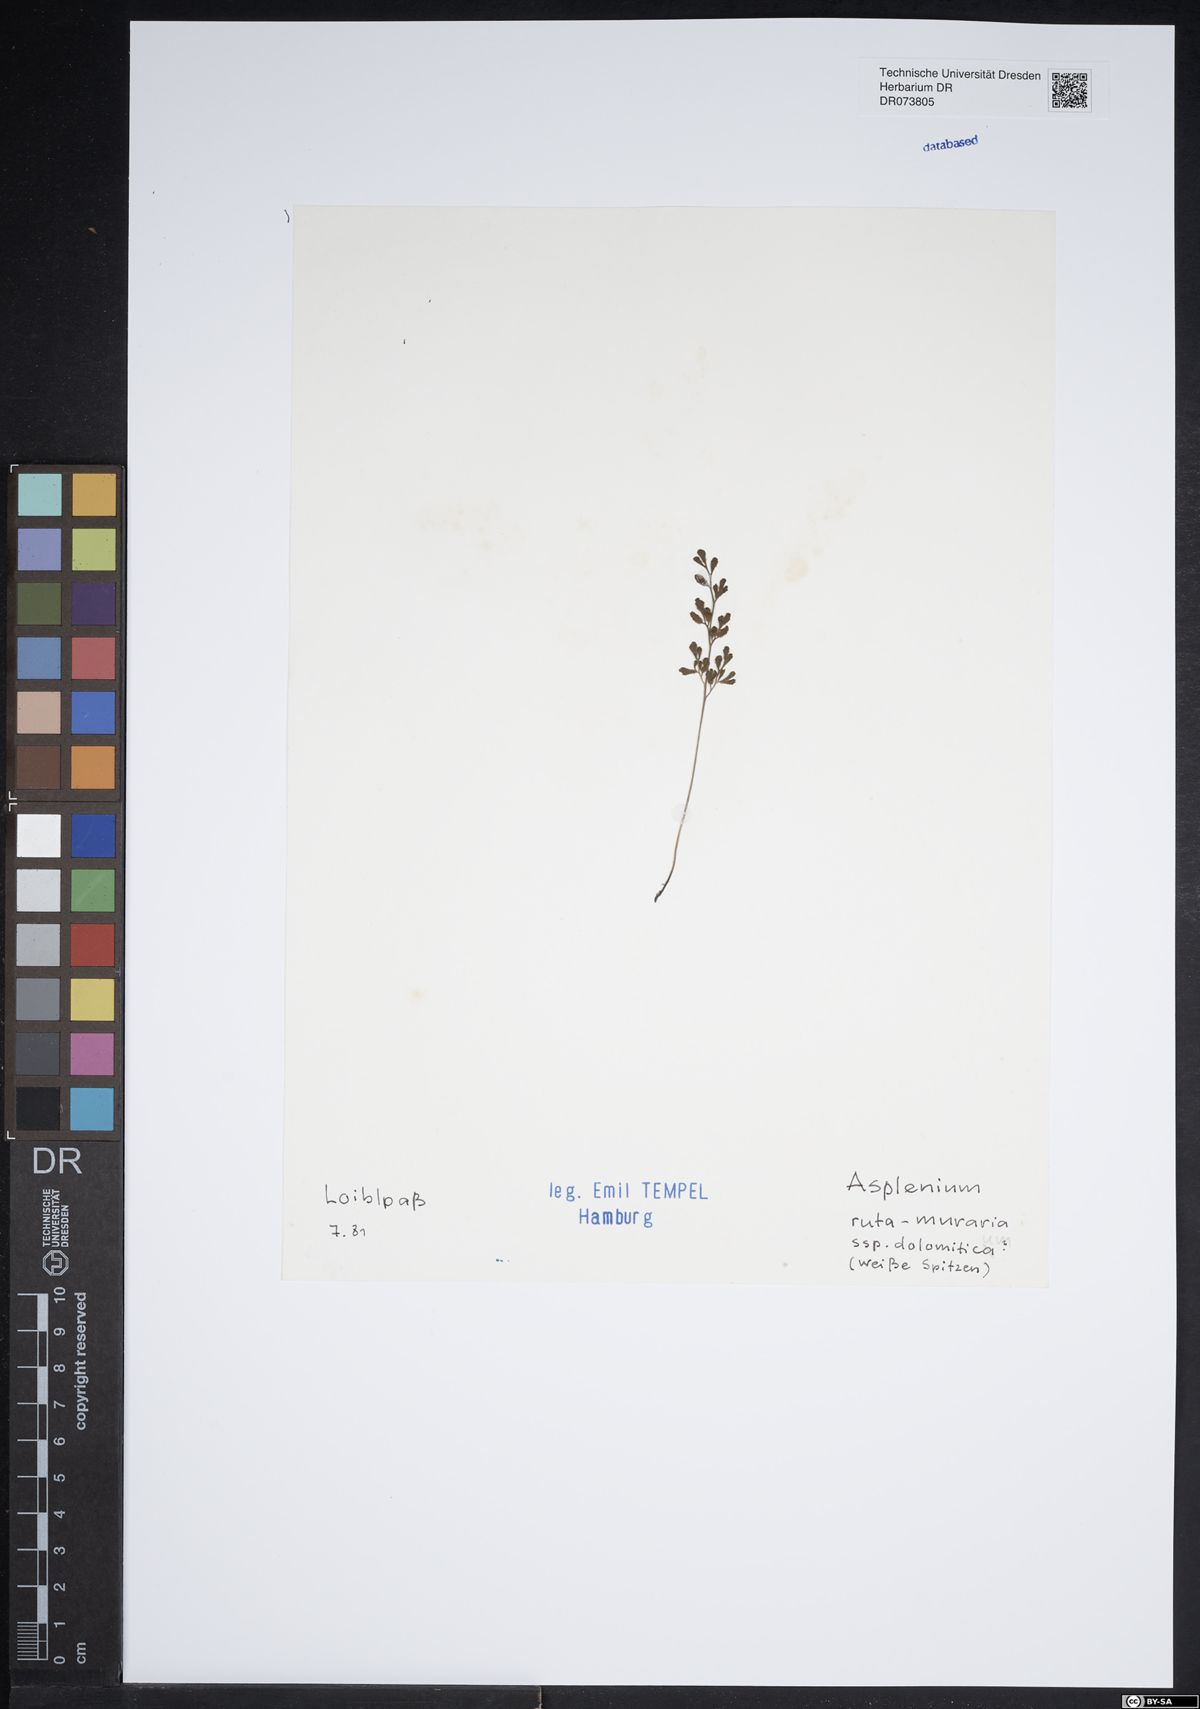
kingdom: Plantae
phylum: Tracheophyta
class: Polypodiopsida
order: Polypodiales
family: Aspleniaceae
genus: Asplenium
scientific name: Asplenium ruta-muraria
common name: Wall-rue
